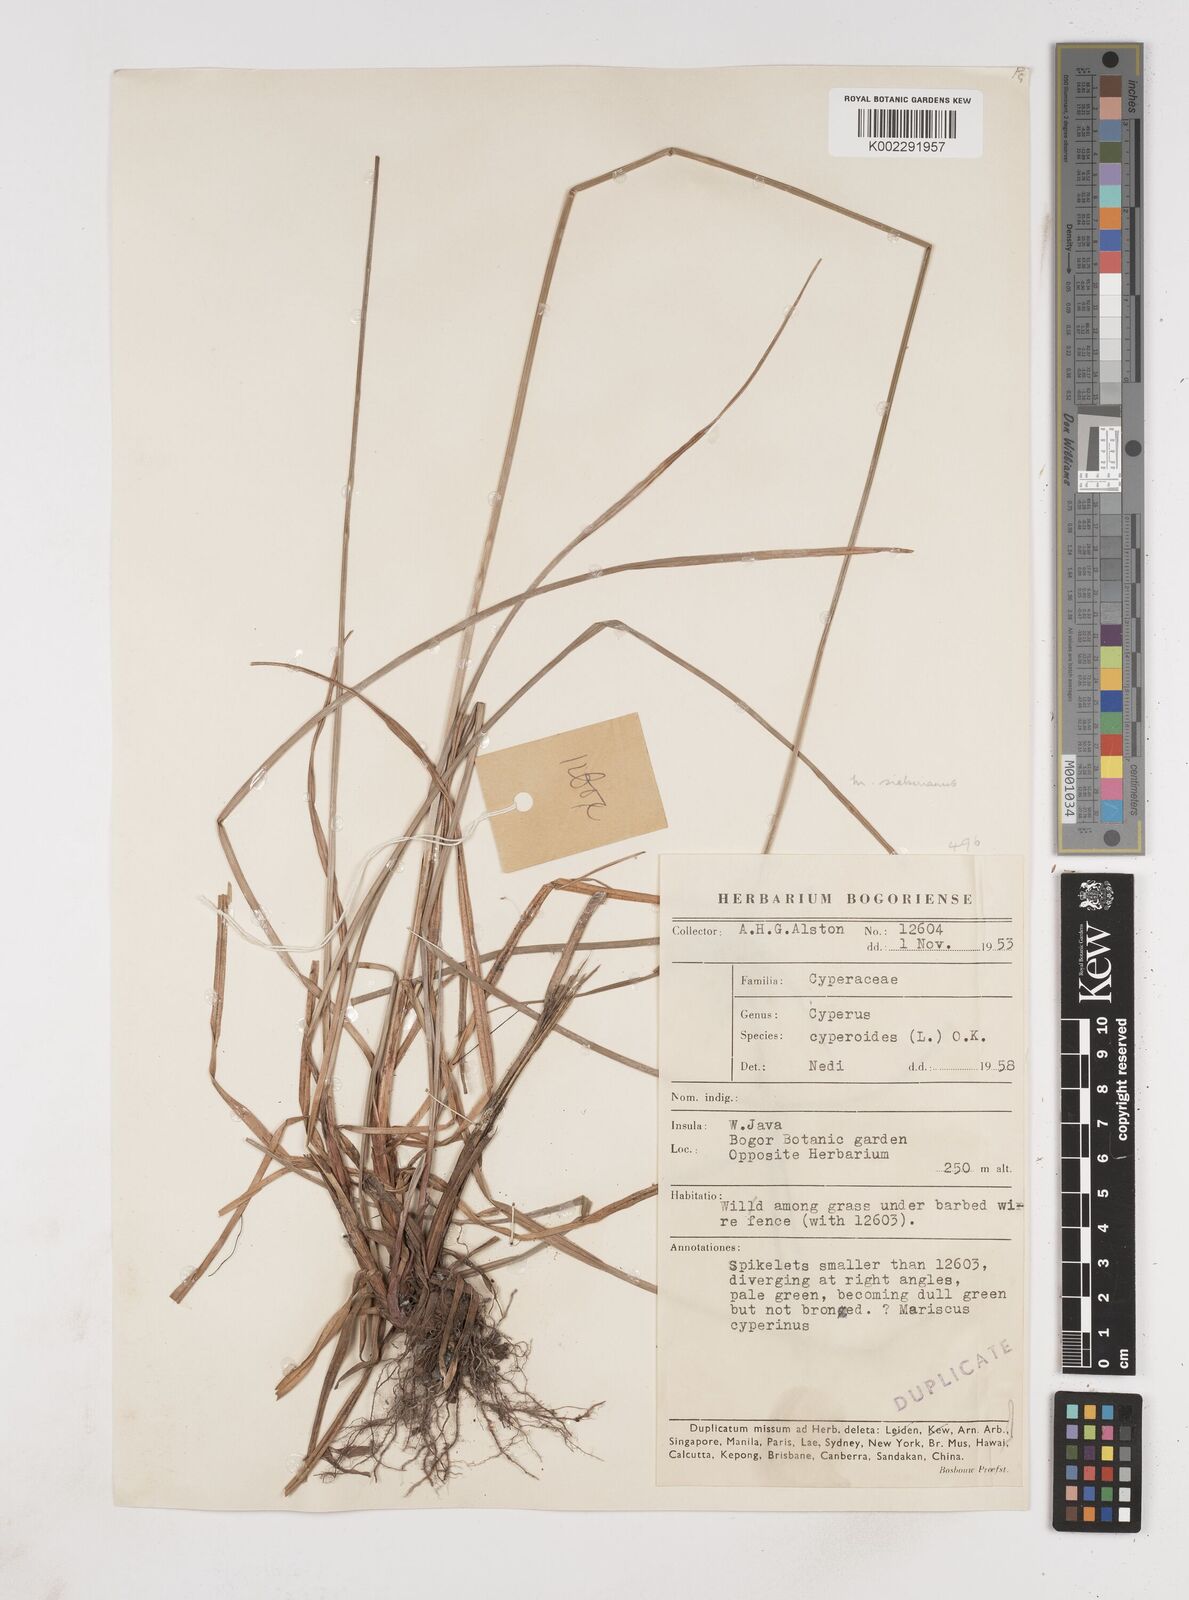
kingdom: Plantae
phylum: Tracheophyta
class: Liliopsida
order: Poales
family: Cyperaceae
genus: Cyperus
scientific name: Cyperus cyperoides
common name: Pacific island flat sedge
